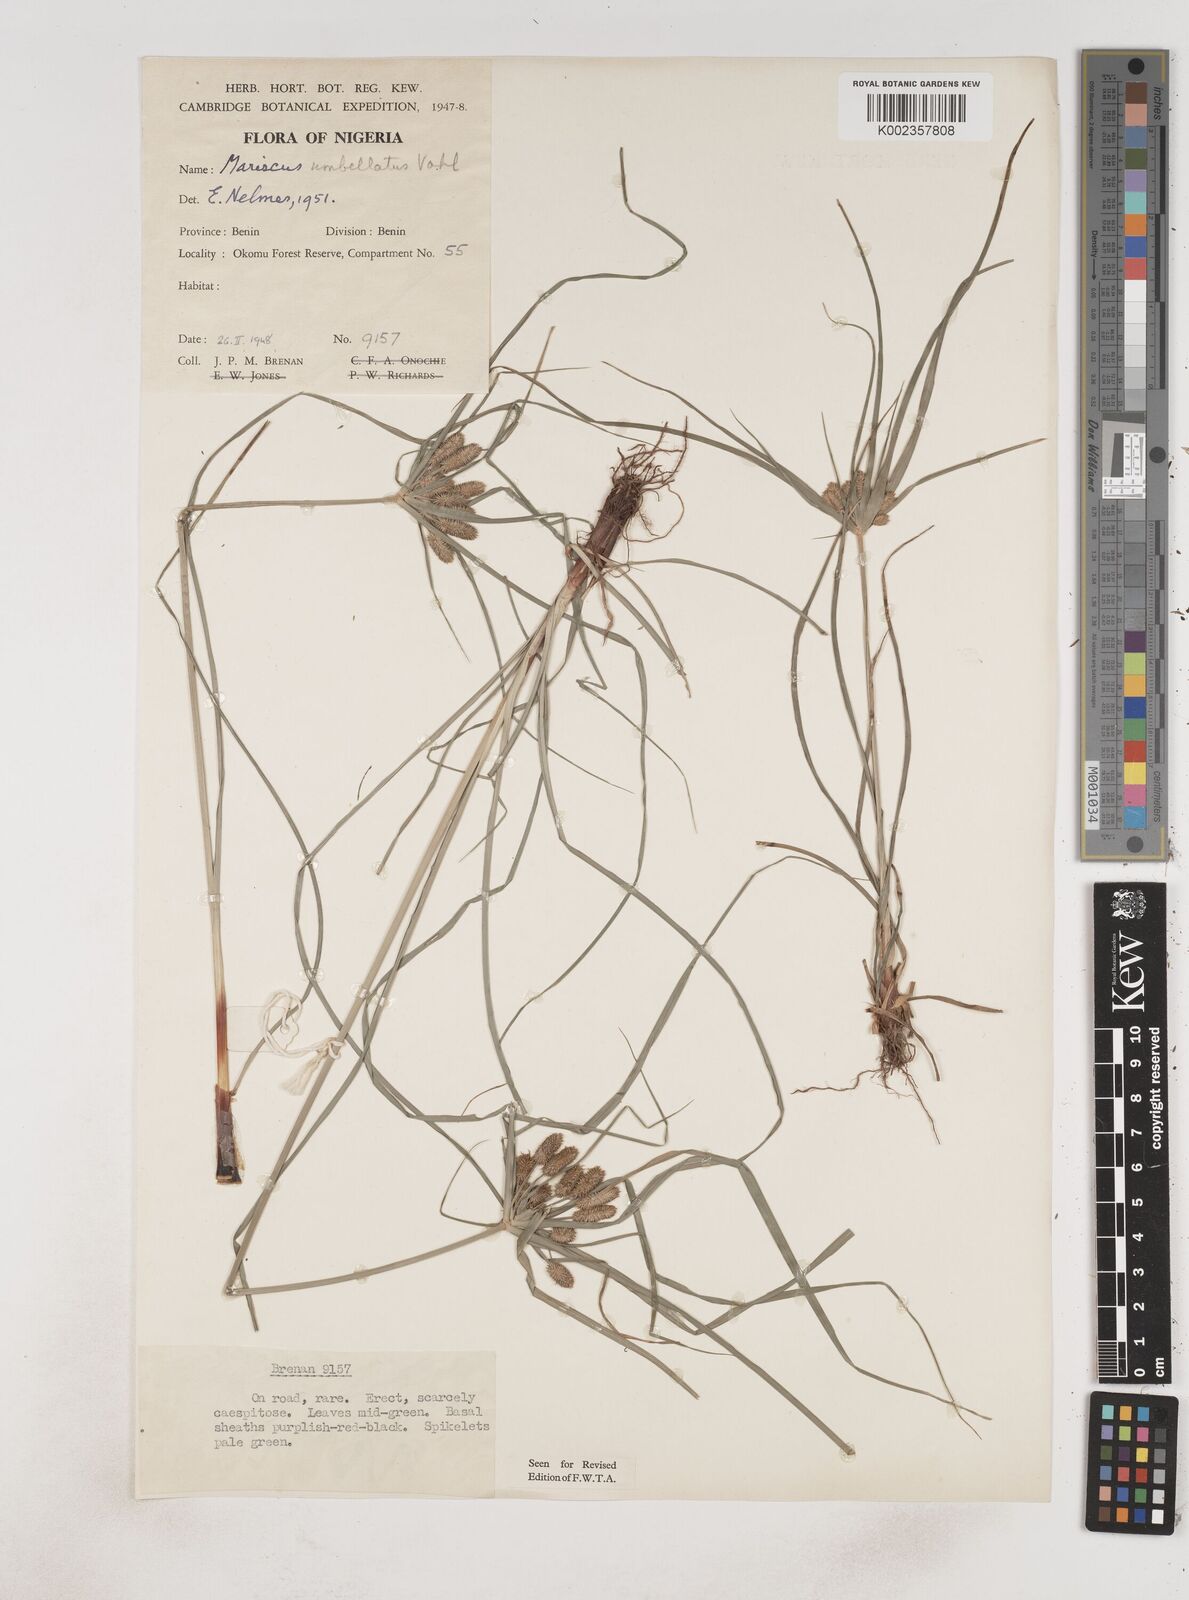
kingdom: Plantae
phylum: Tracheophyta
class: Liliopsida
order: Poales
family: Cyperaceae
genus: Cyperus
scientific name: Cyperus sublimis
